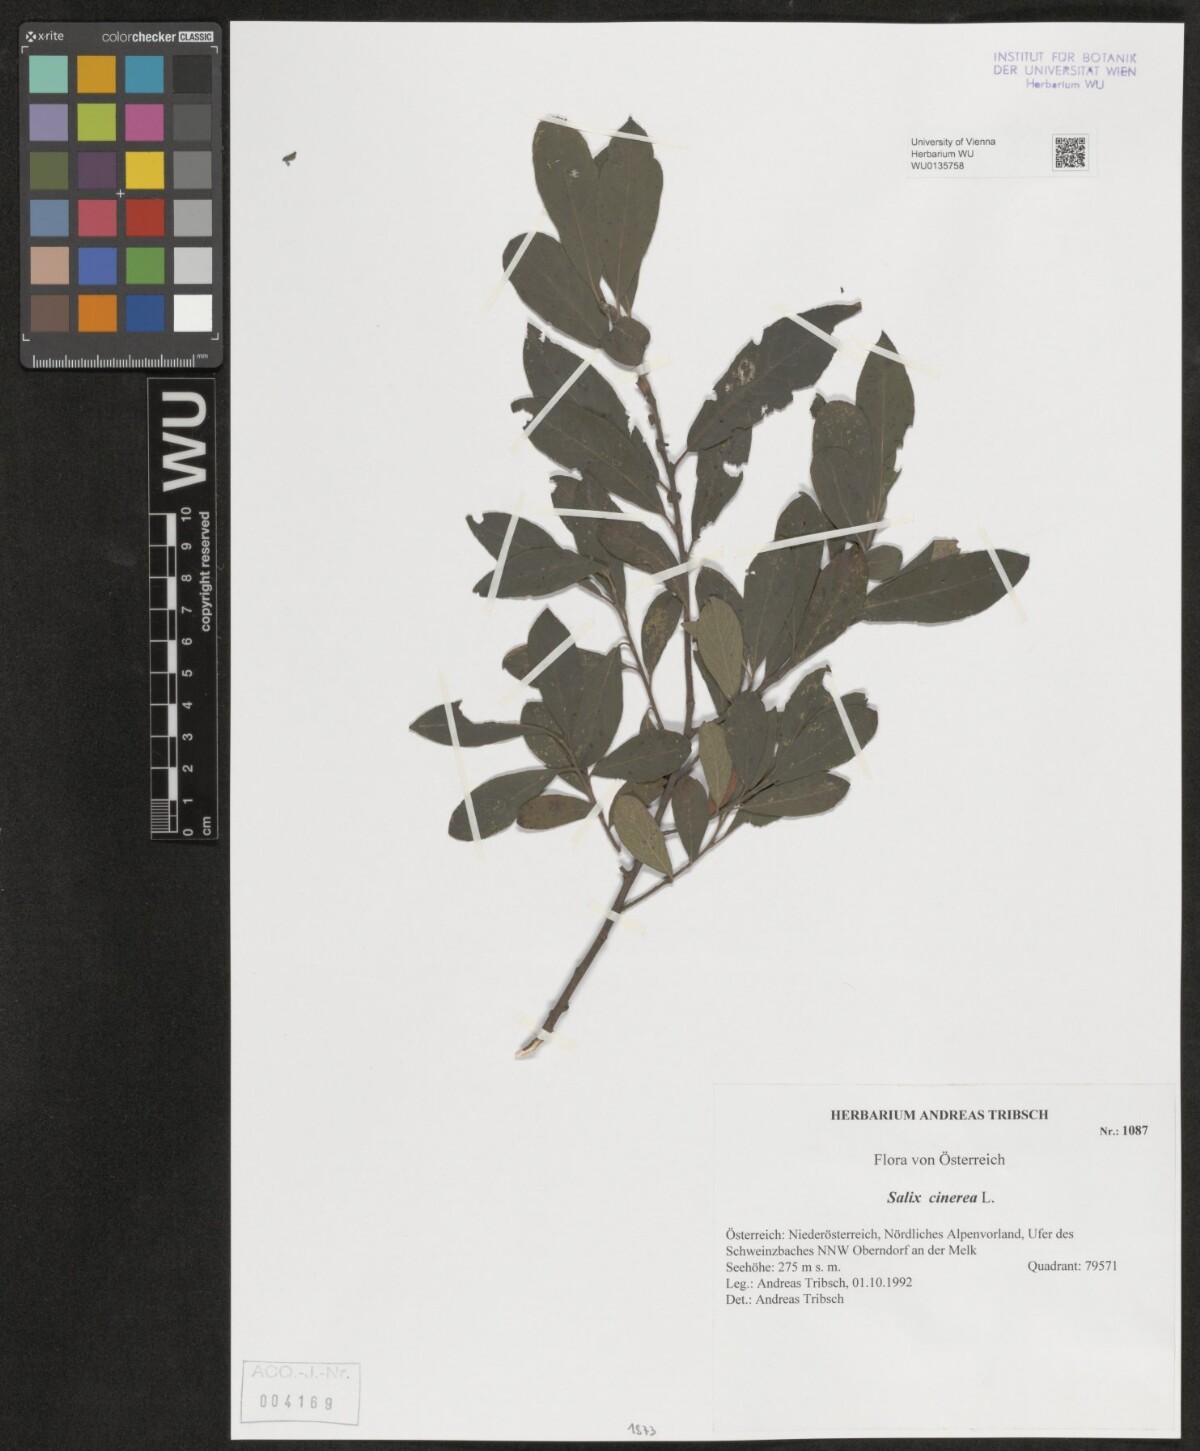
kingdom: Plantae
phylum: Tracheophyta
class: Magnoliopsida
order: Malpighiales
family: Salicaceae
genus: Salix
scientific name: Salix cinerea
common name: Common sallow
